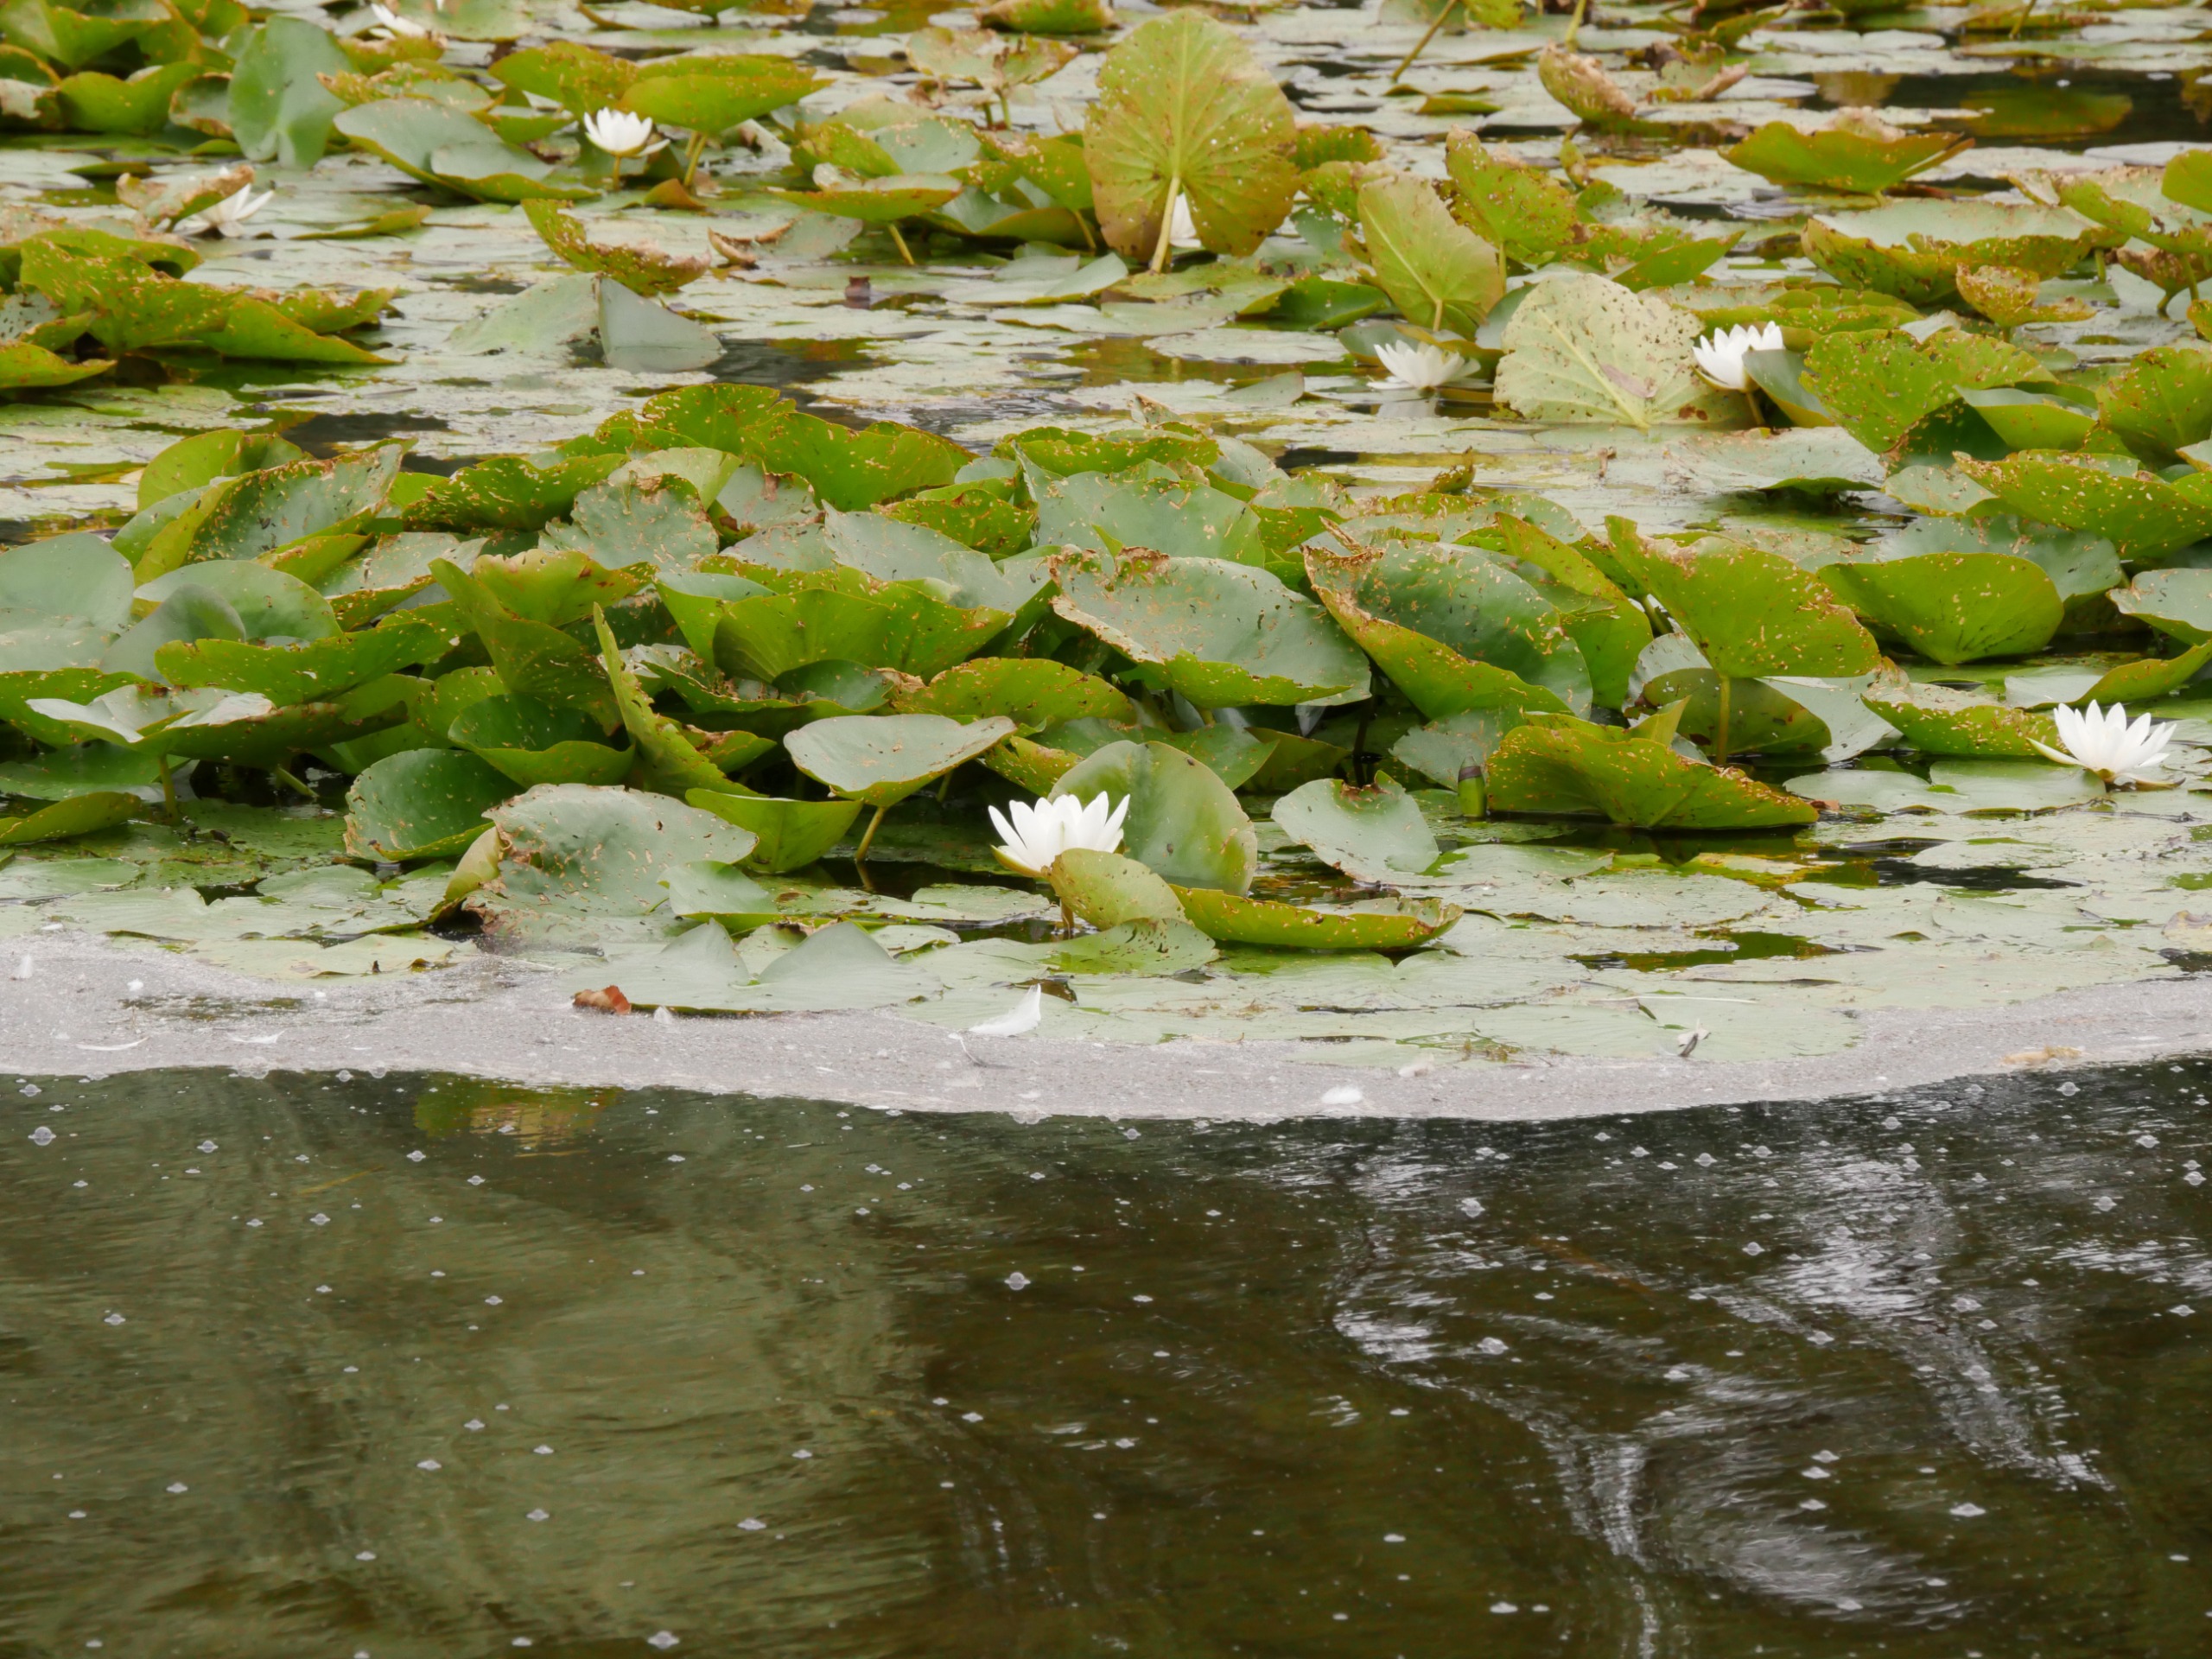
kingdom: Plantae
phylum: Tracheophyta
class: Magnoliopsida
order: Nymphaeales
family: Nymphaeaceae
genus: Nymphaea
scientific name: Nymphaea alba
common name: Hvid åkande
